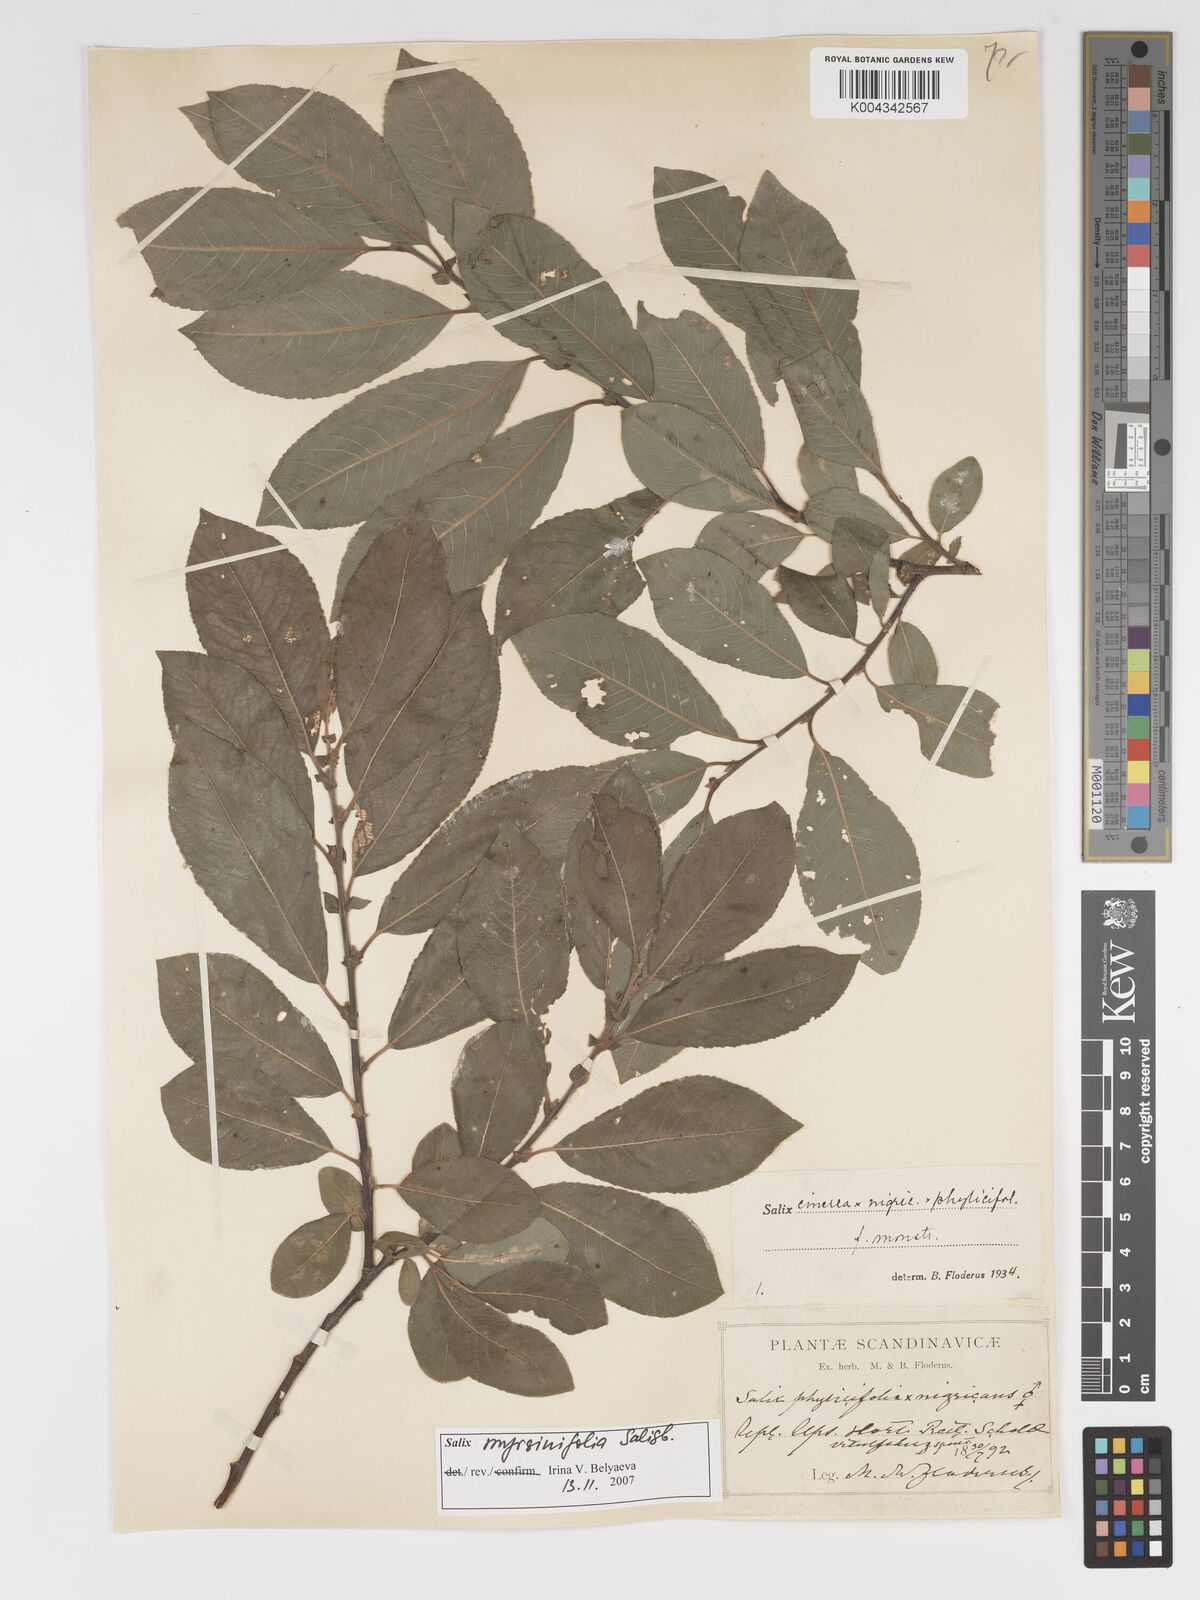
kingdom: Plantae
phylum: Tracheophyta
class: Magnoliopsida
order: Malpighiales
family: Salicaceae
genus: Salix
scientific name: Salix cinerea
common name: Common sallow
